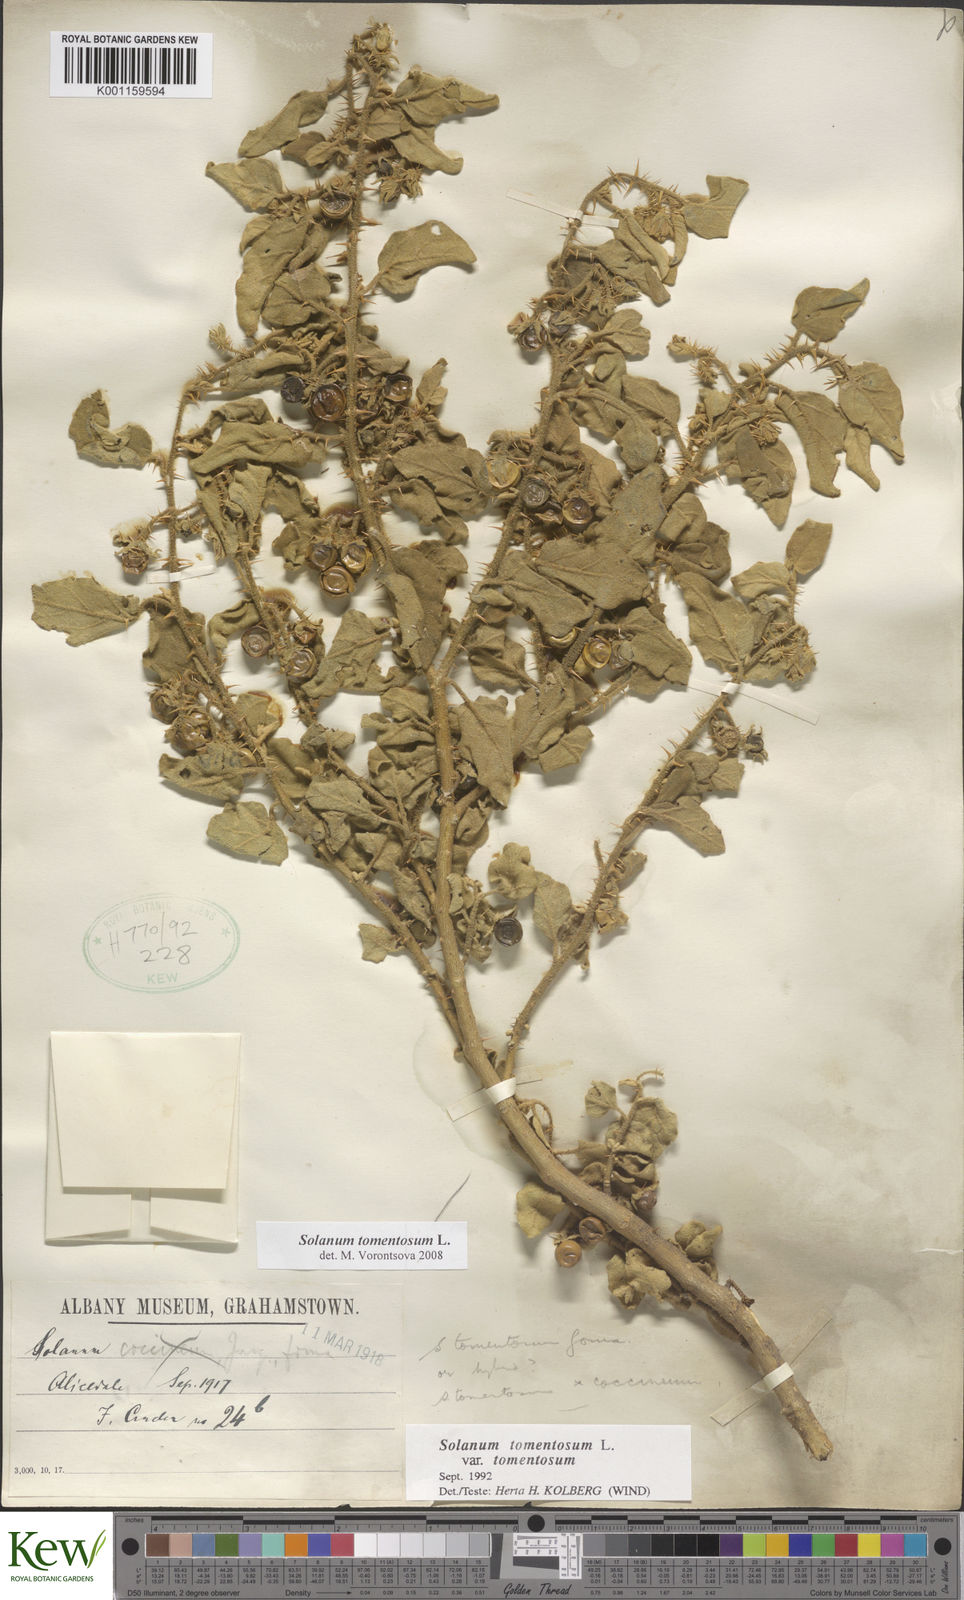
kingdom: Plantae
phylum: Tracheophyta
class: Magnoliopsida
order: Solanales
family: Solanaceae
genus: Solanum
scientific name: Solanum tomentosum
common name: Wild aubergine
